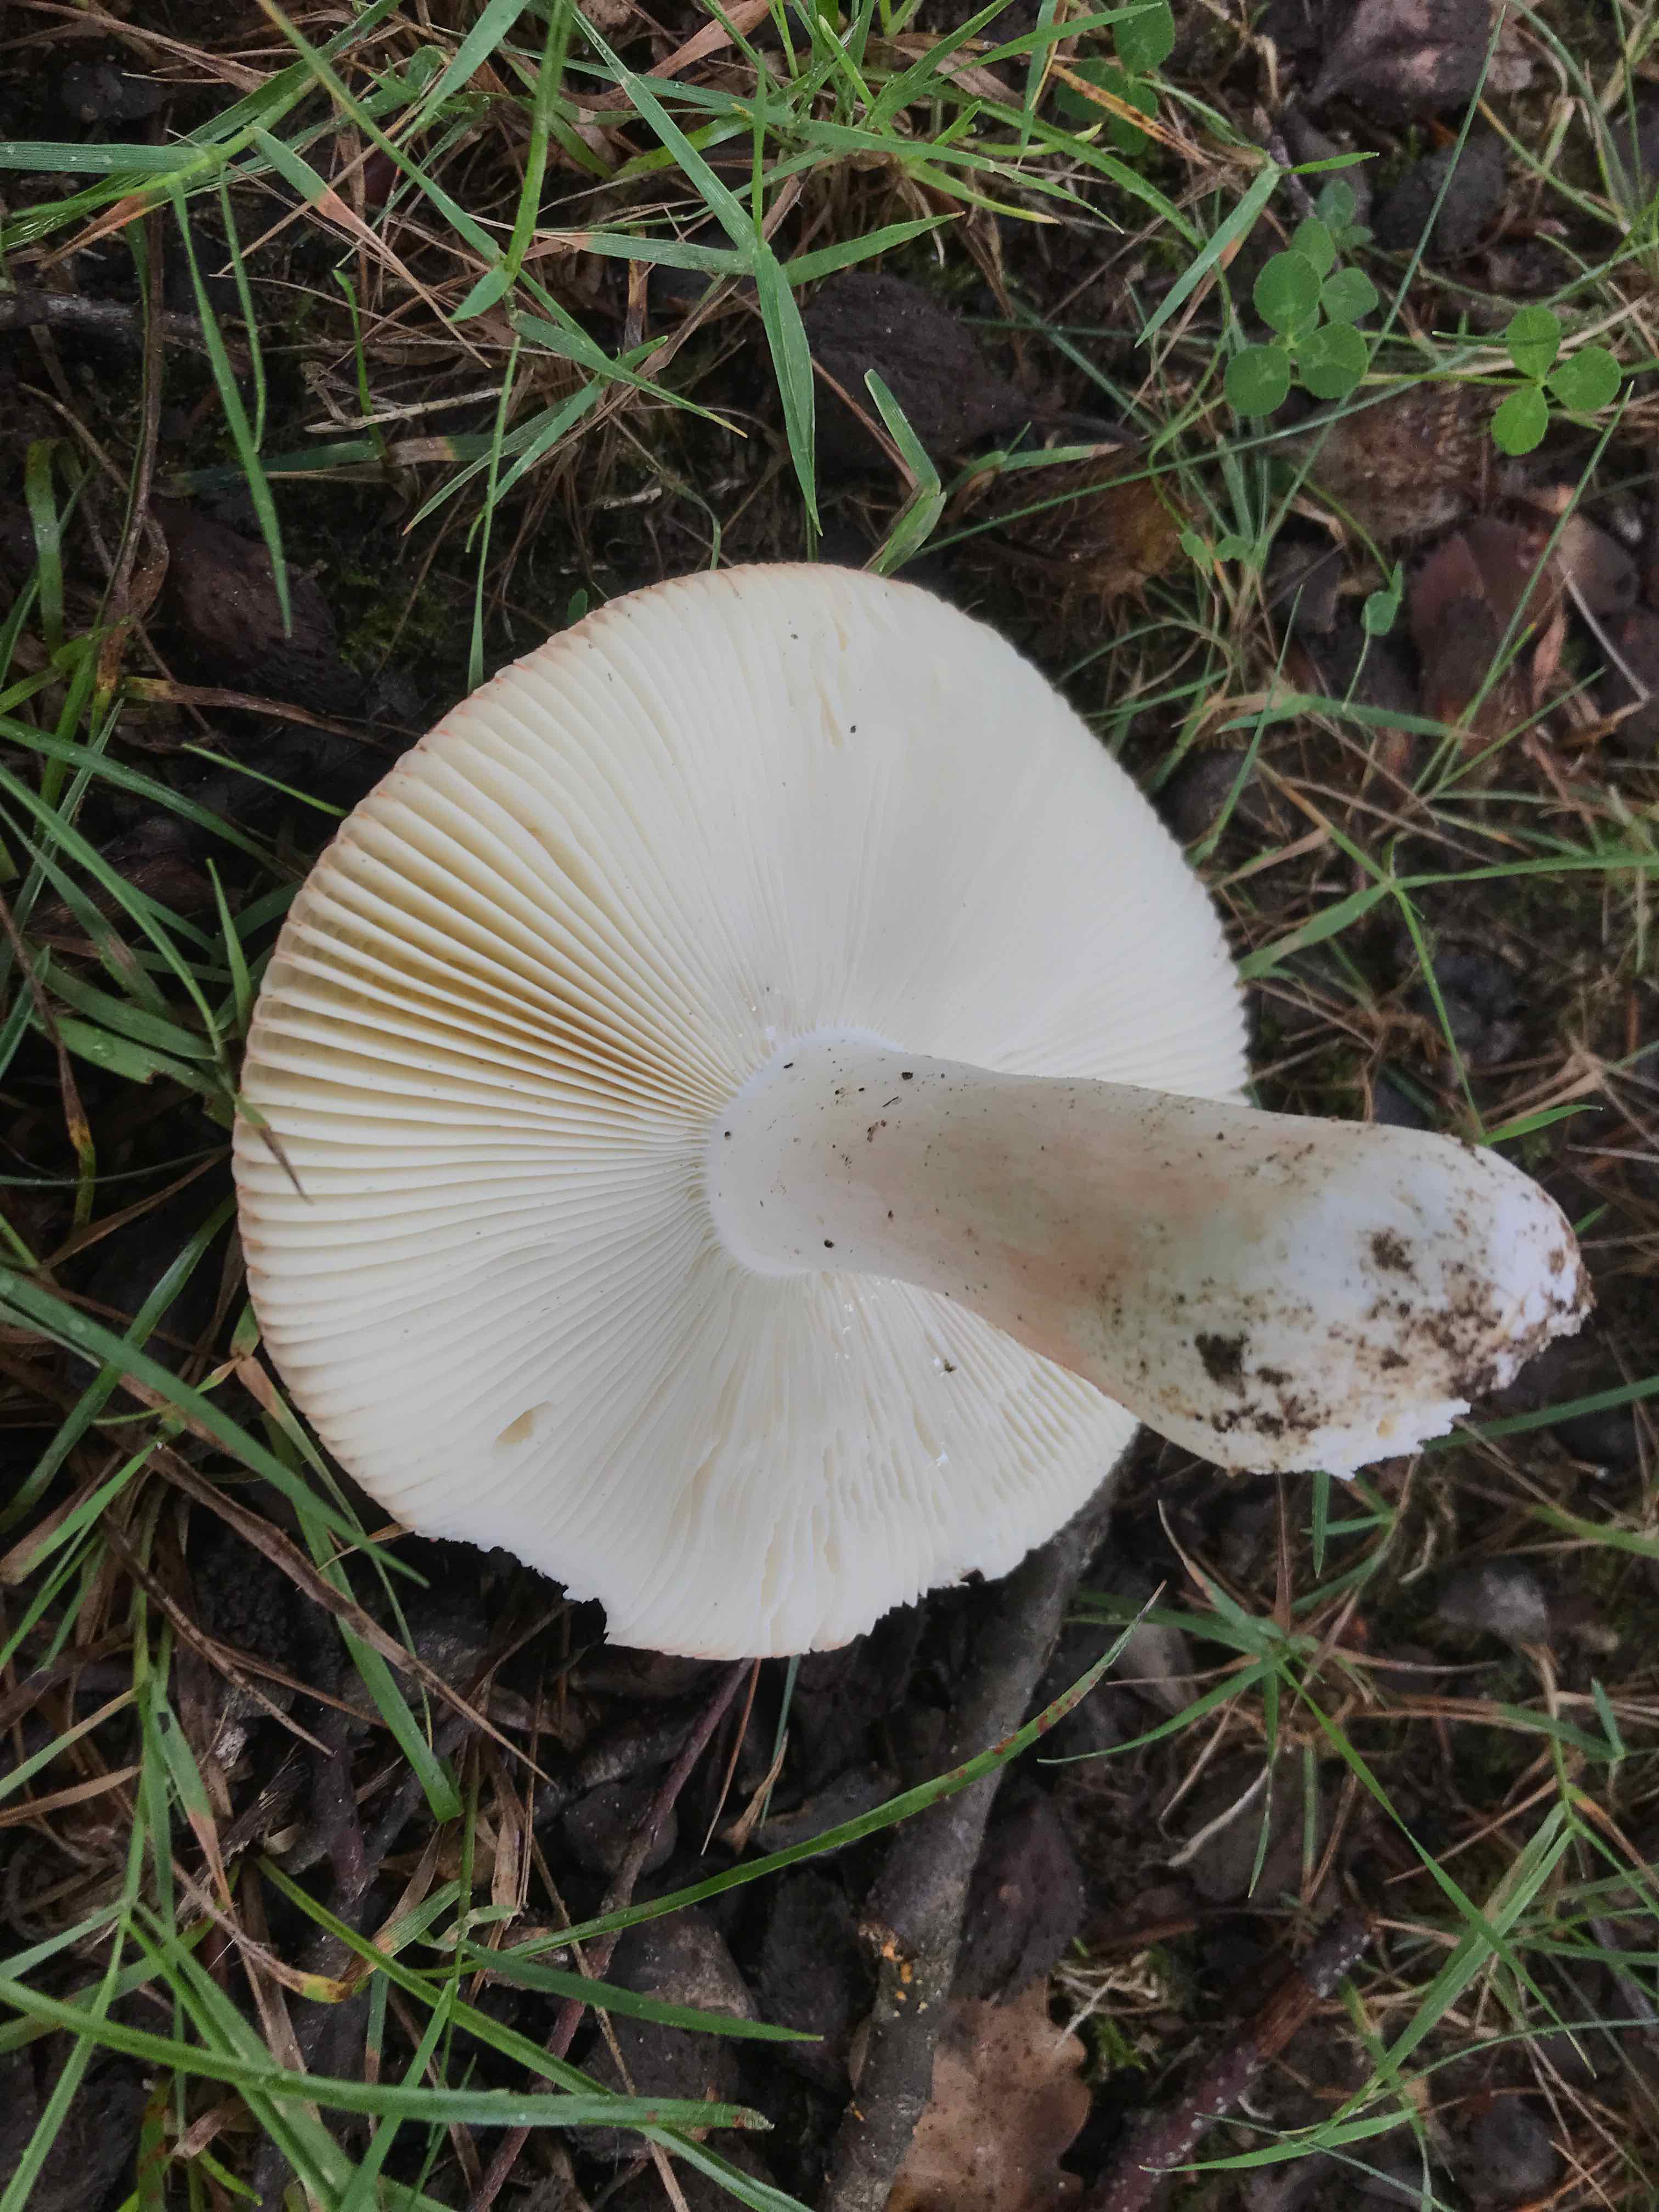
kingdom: Fungi
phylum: Basidiomycota
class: Agaricomycetes
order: Russulales
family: Russulaceae
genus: Russula
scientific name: Russula
